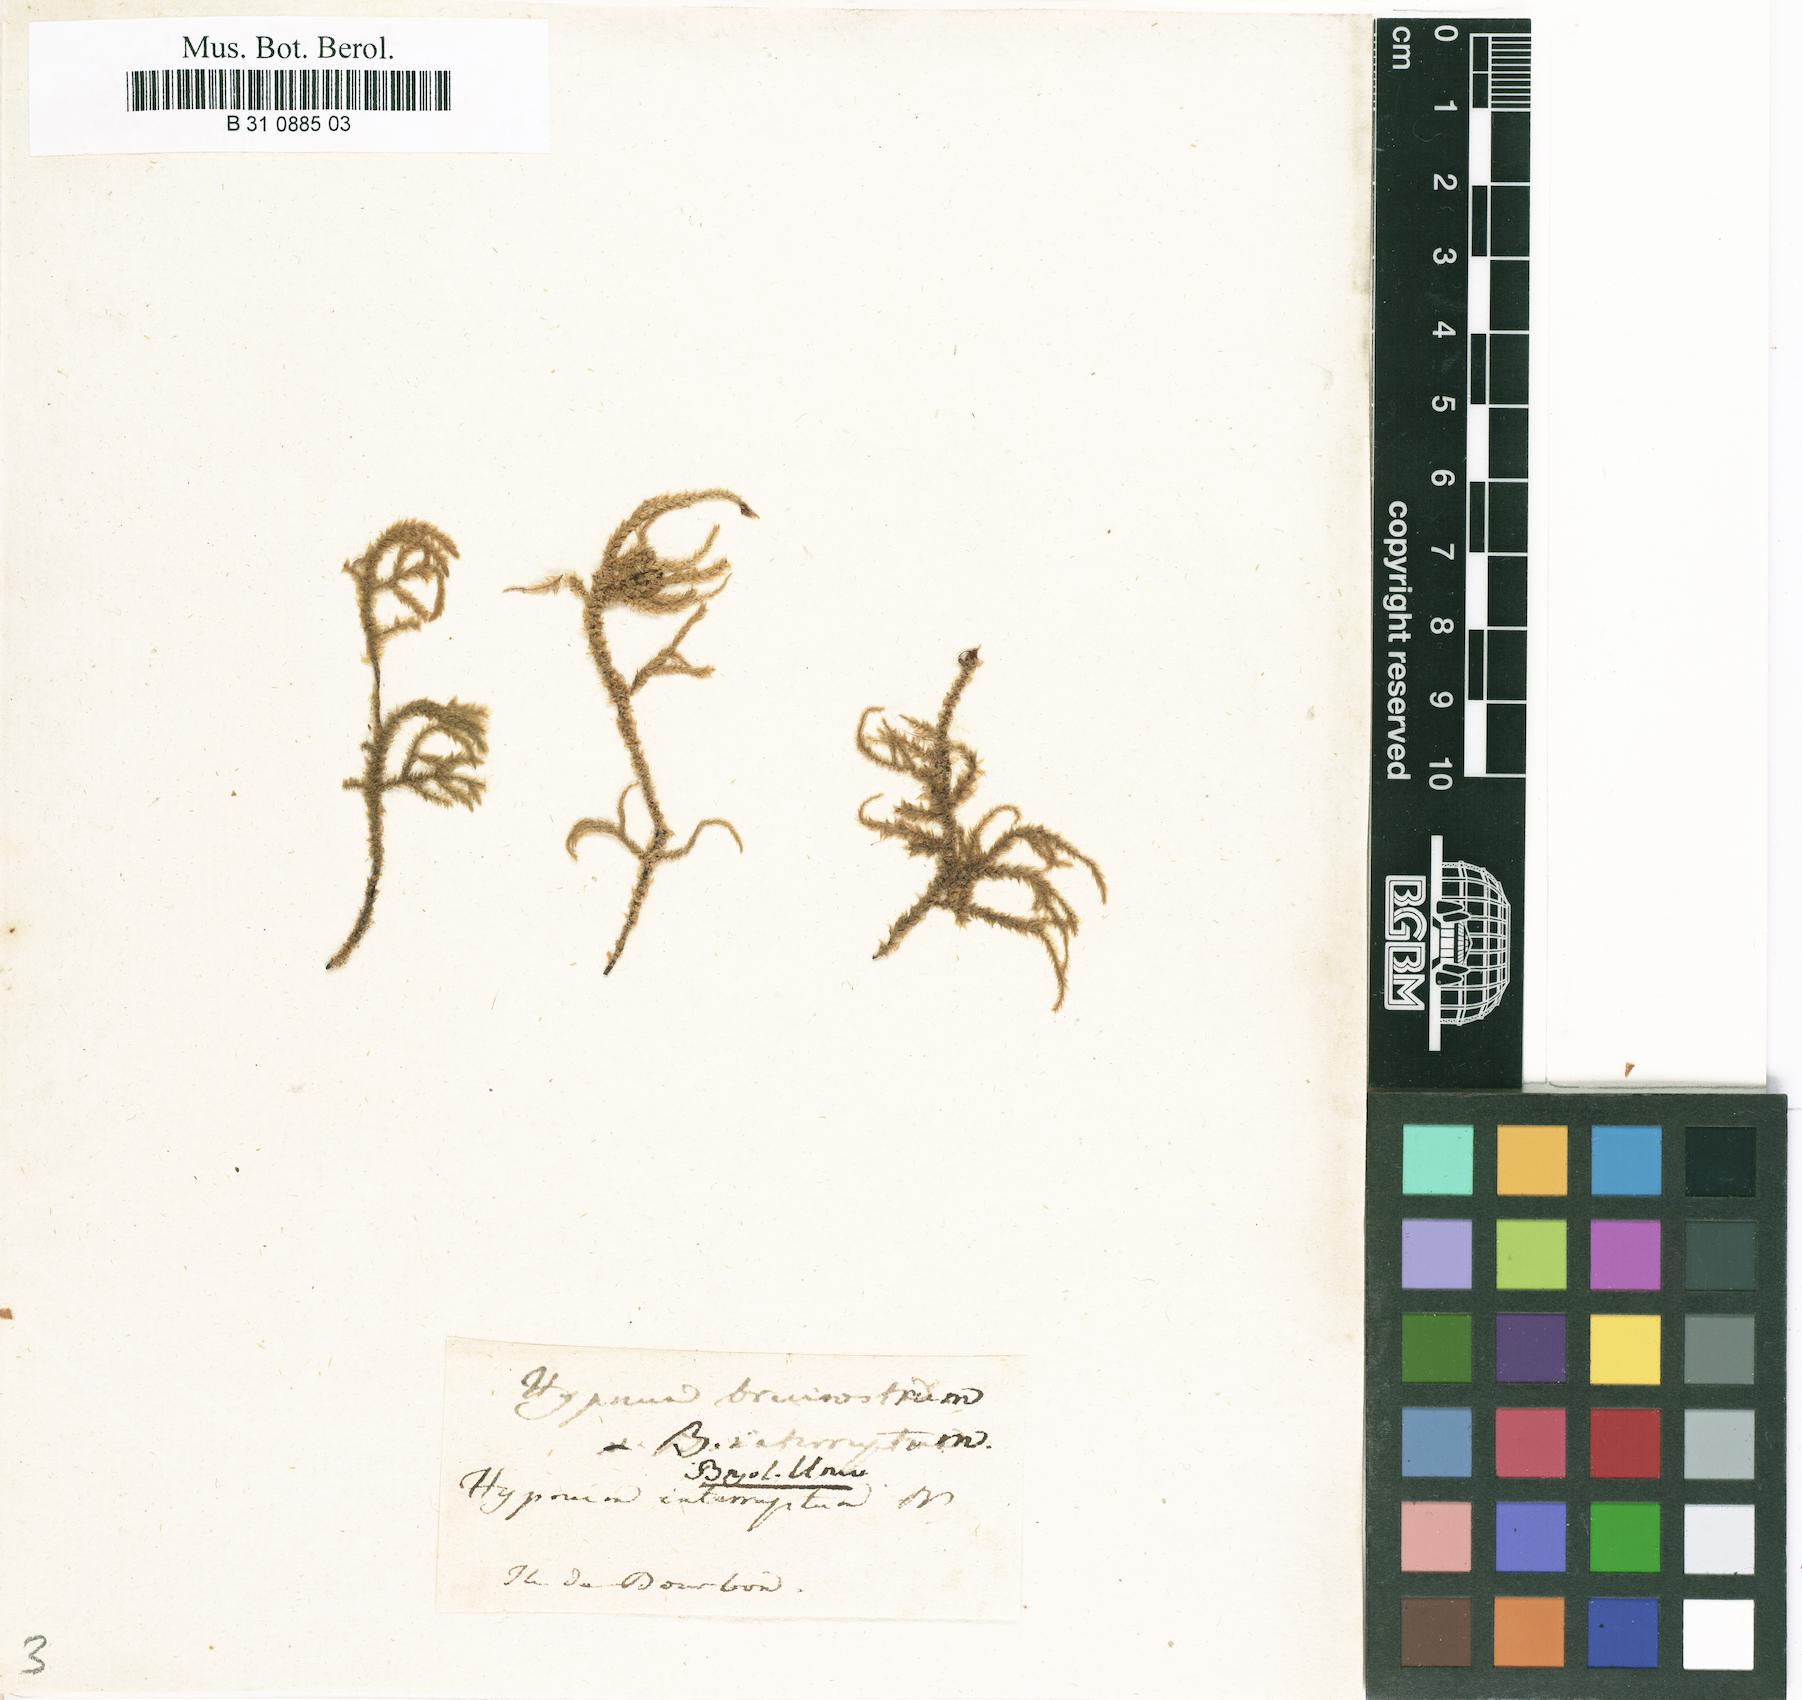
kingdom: Plantae
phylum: Bryophyta
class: Bryopsida
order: Hypnales
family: Hylocomiaceae
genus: Loeskeobryum
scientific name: Loeskeobryum brevirostre
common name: Short-beaked wood-moss
